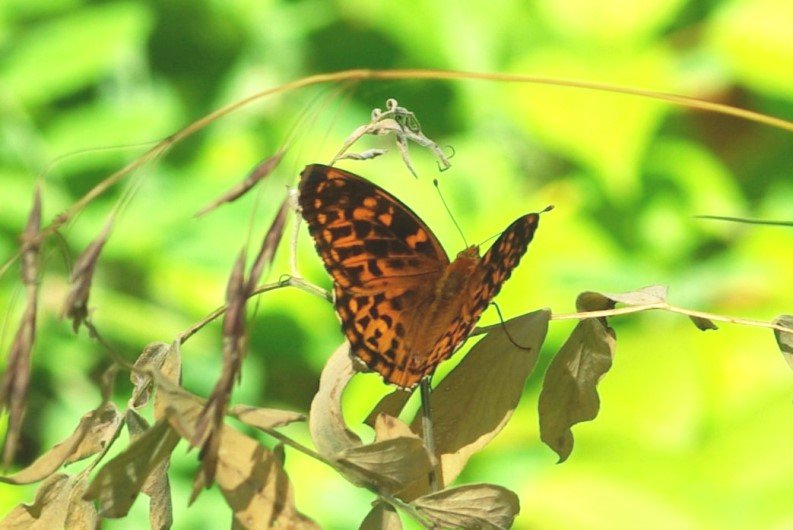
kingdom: Animalia
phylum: Arthropoda
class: Insecta
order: Lepidoptera
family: Nymphalidae
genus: Speyeria
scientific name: Speyeria atlantis
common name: Atlantis Fritillary
